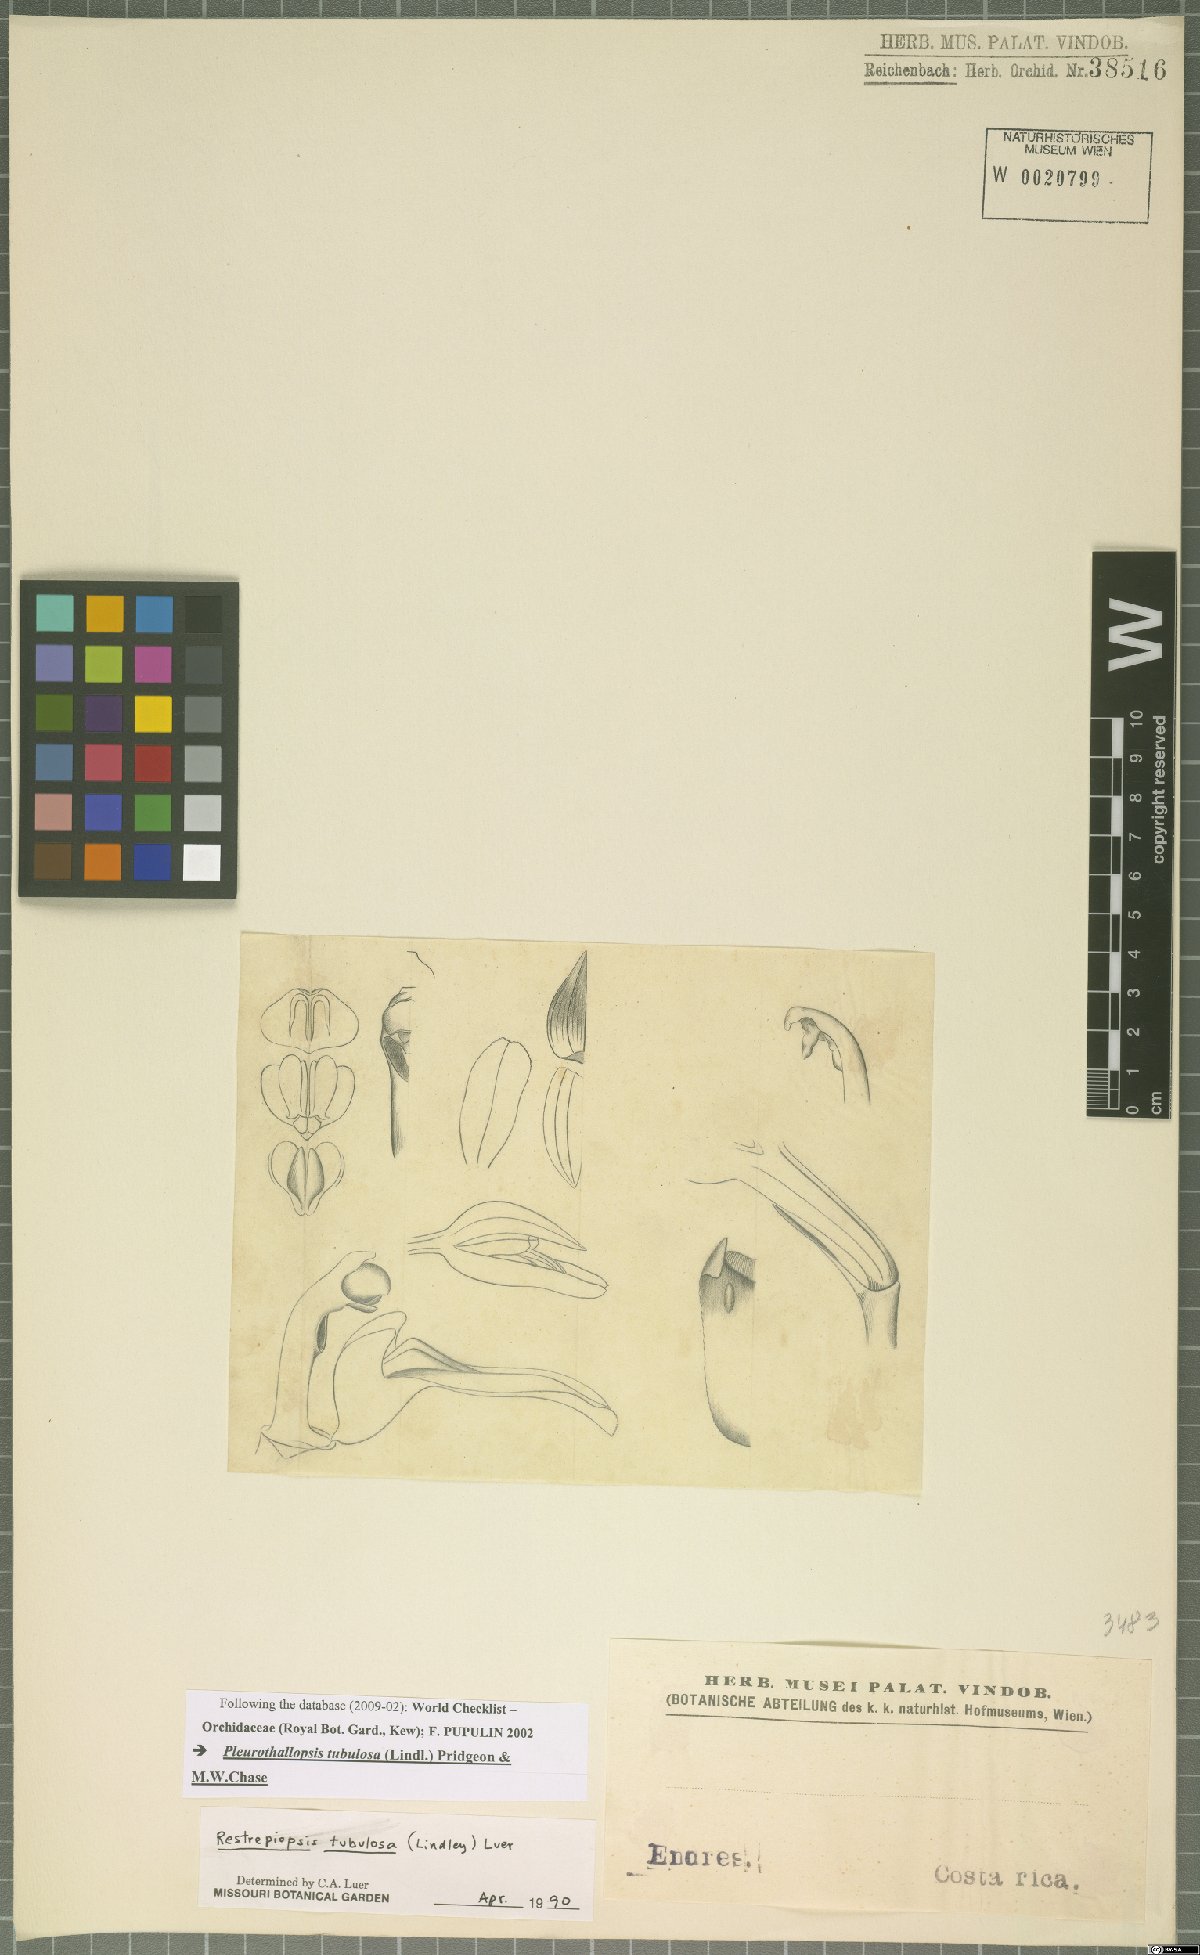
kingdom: Plantae
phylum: Tracheophyta
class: Liliopsida
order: Asparagales
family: Orchidaceae
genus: Pleurothallopsis
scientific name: Pleurothallopsis tubulosa
